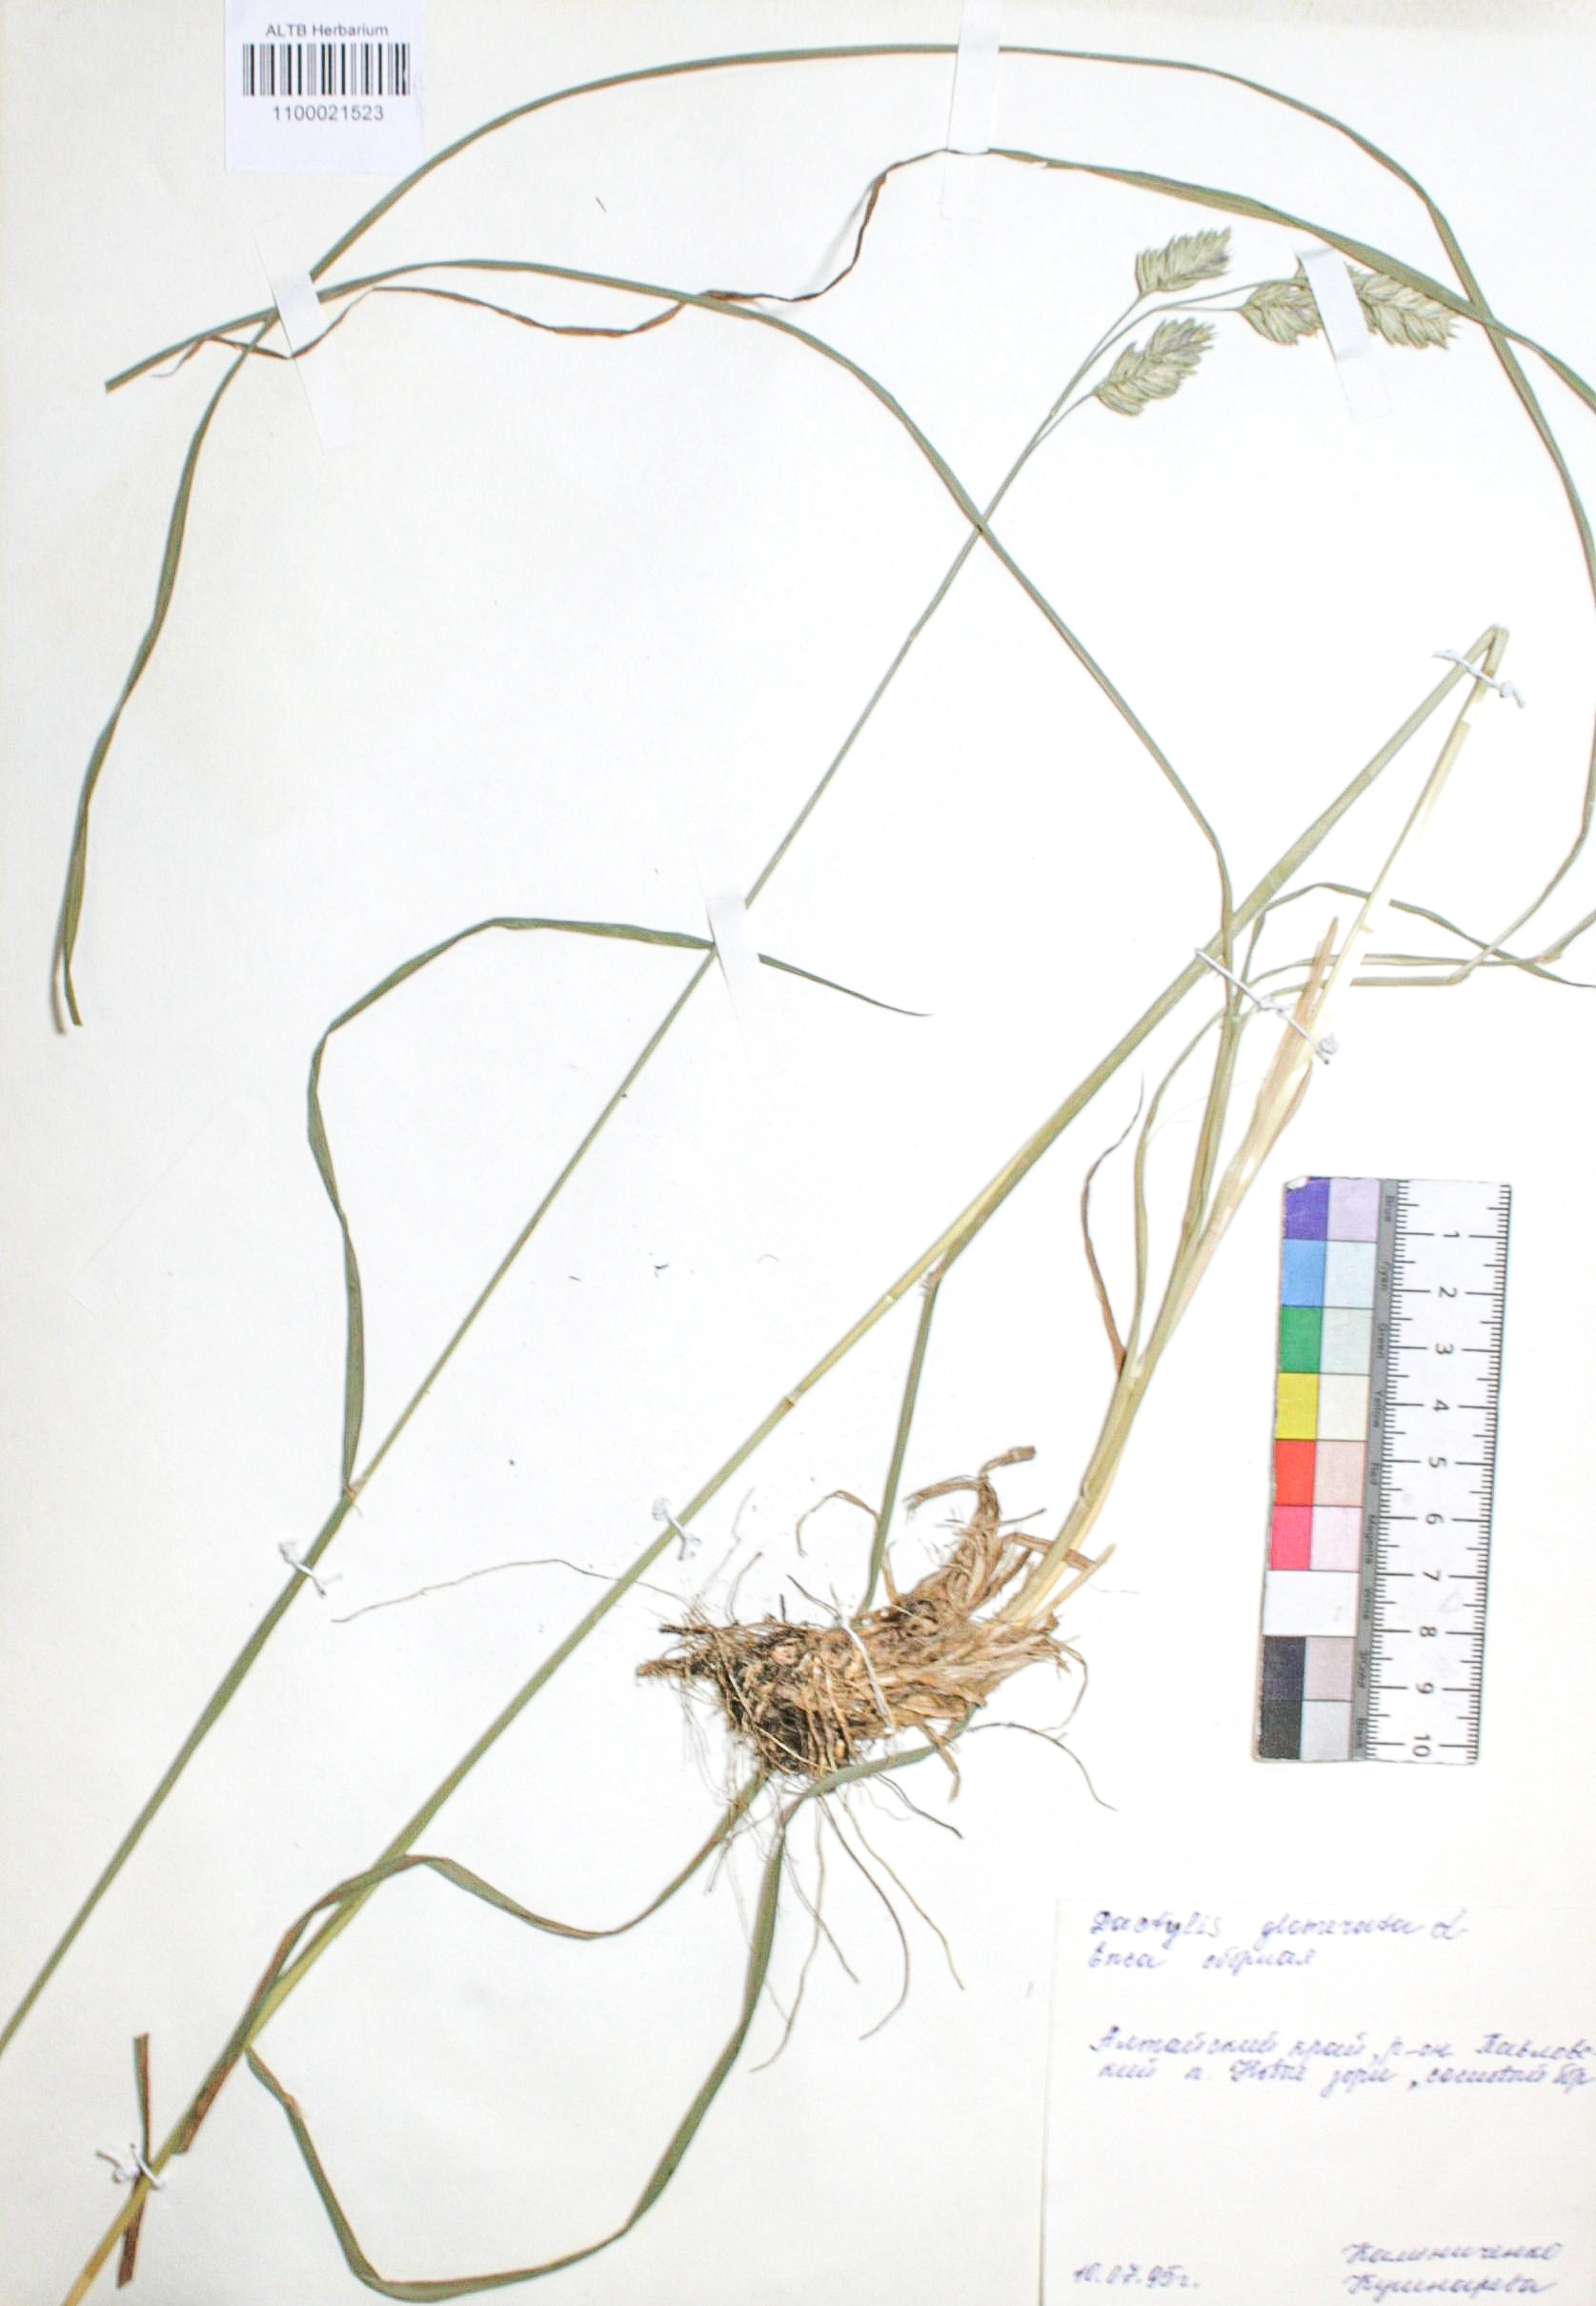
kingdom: Plantae
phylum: Tracheophyta
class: Liliopsida
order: Poales
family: Poaceae
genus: Dactylis
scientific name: Dactylis glomerata
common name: Orchardgrass
